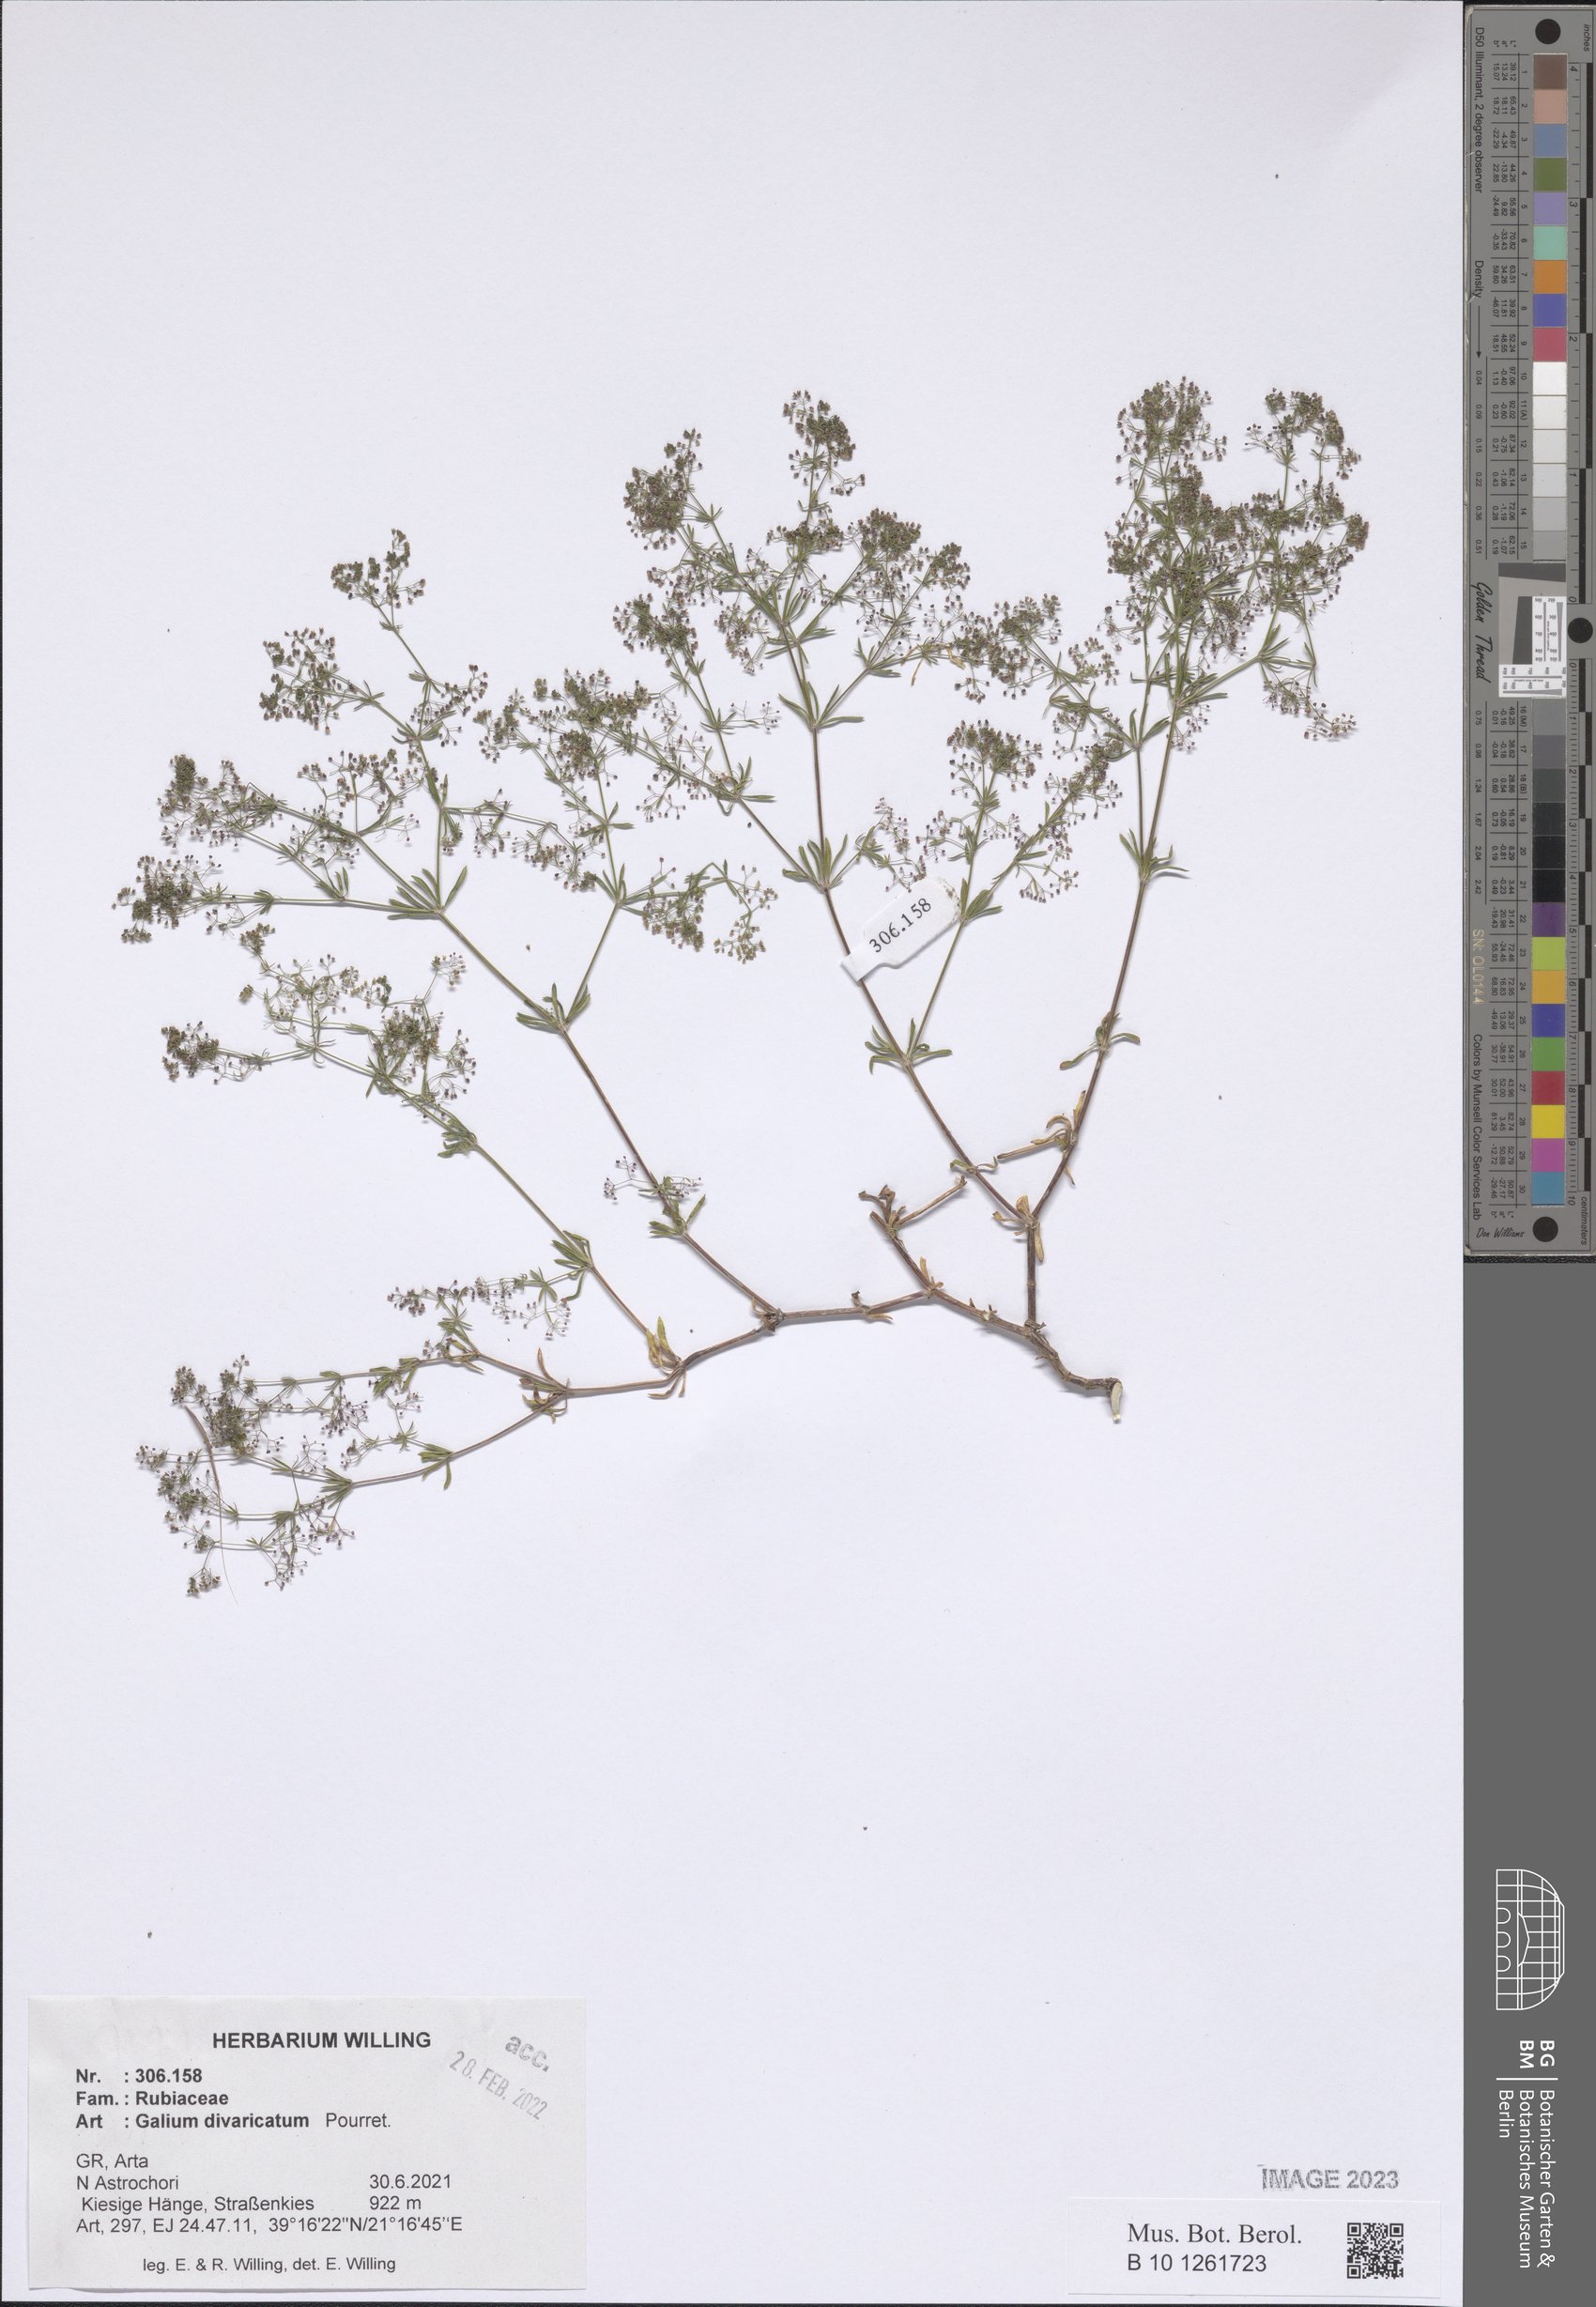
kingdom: Plantae
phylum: Tracheophyta
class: Magnoliopsida
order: Gentianales
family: Rubiaceae
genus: Galium
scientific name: Galium divaricatum
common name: Lamarck's bedstraw
